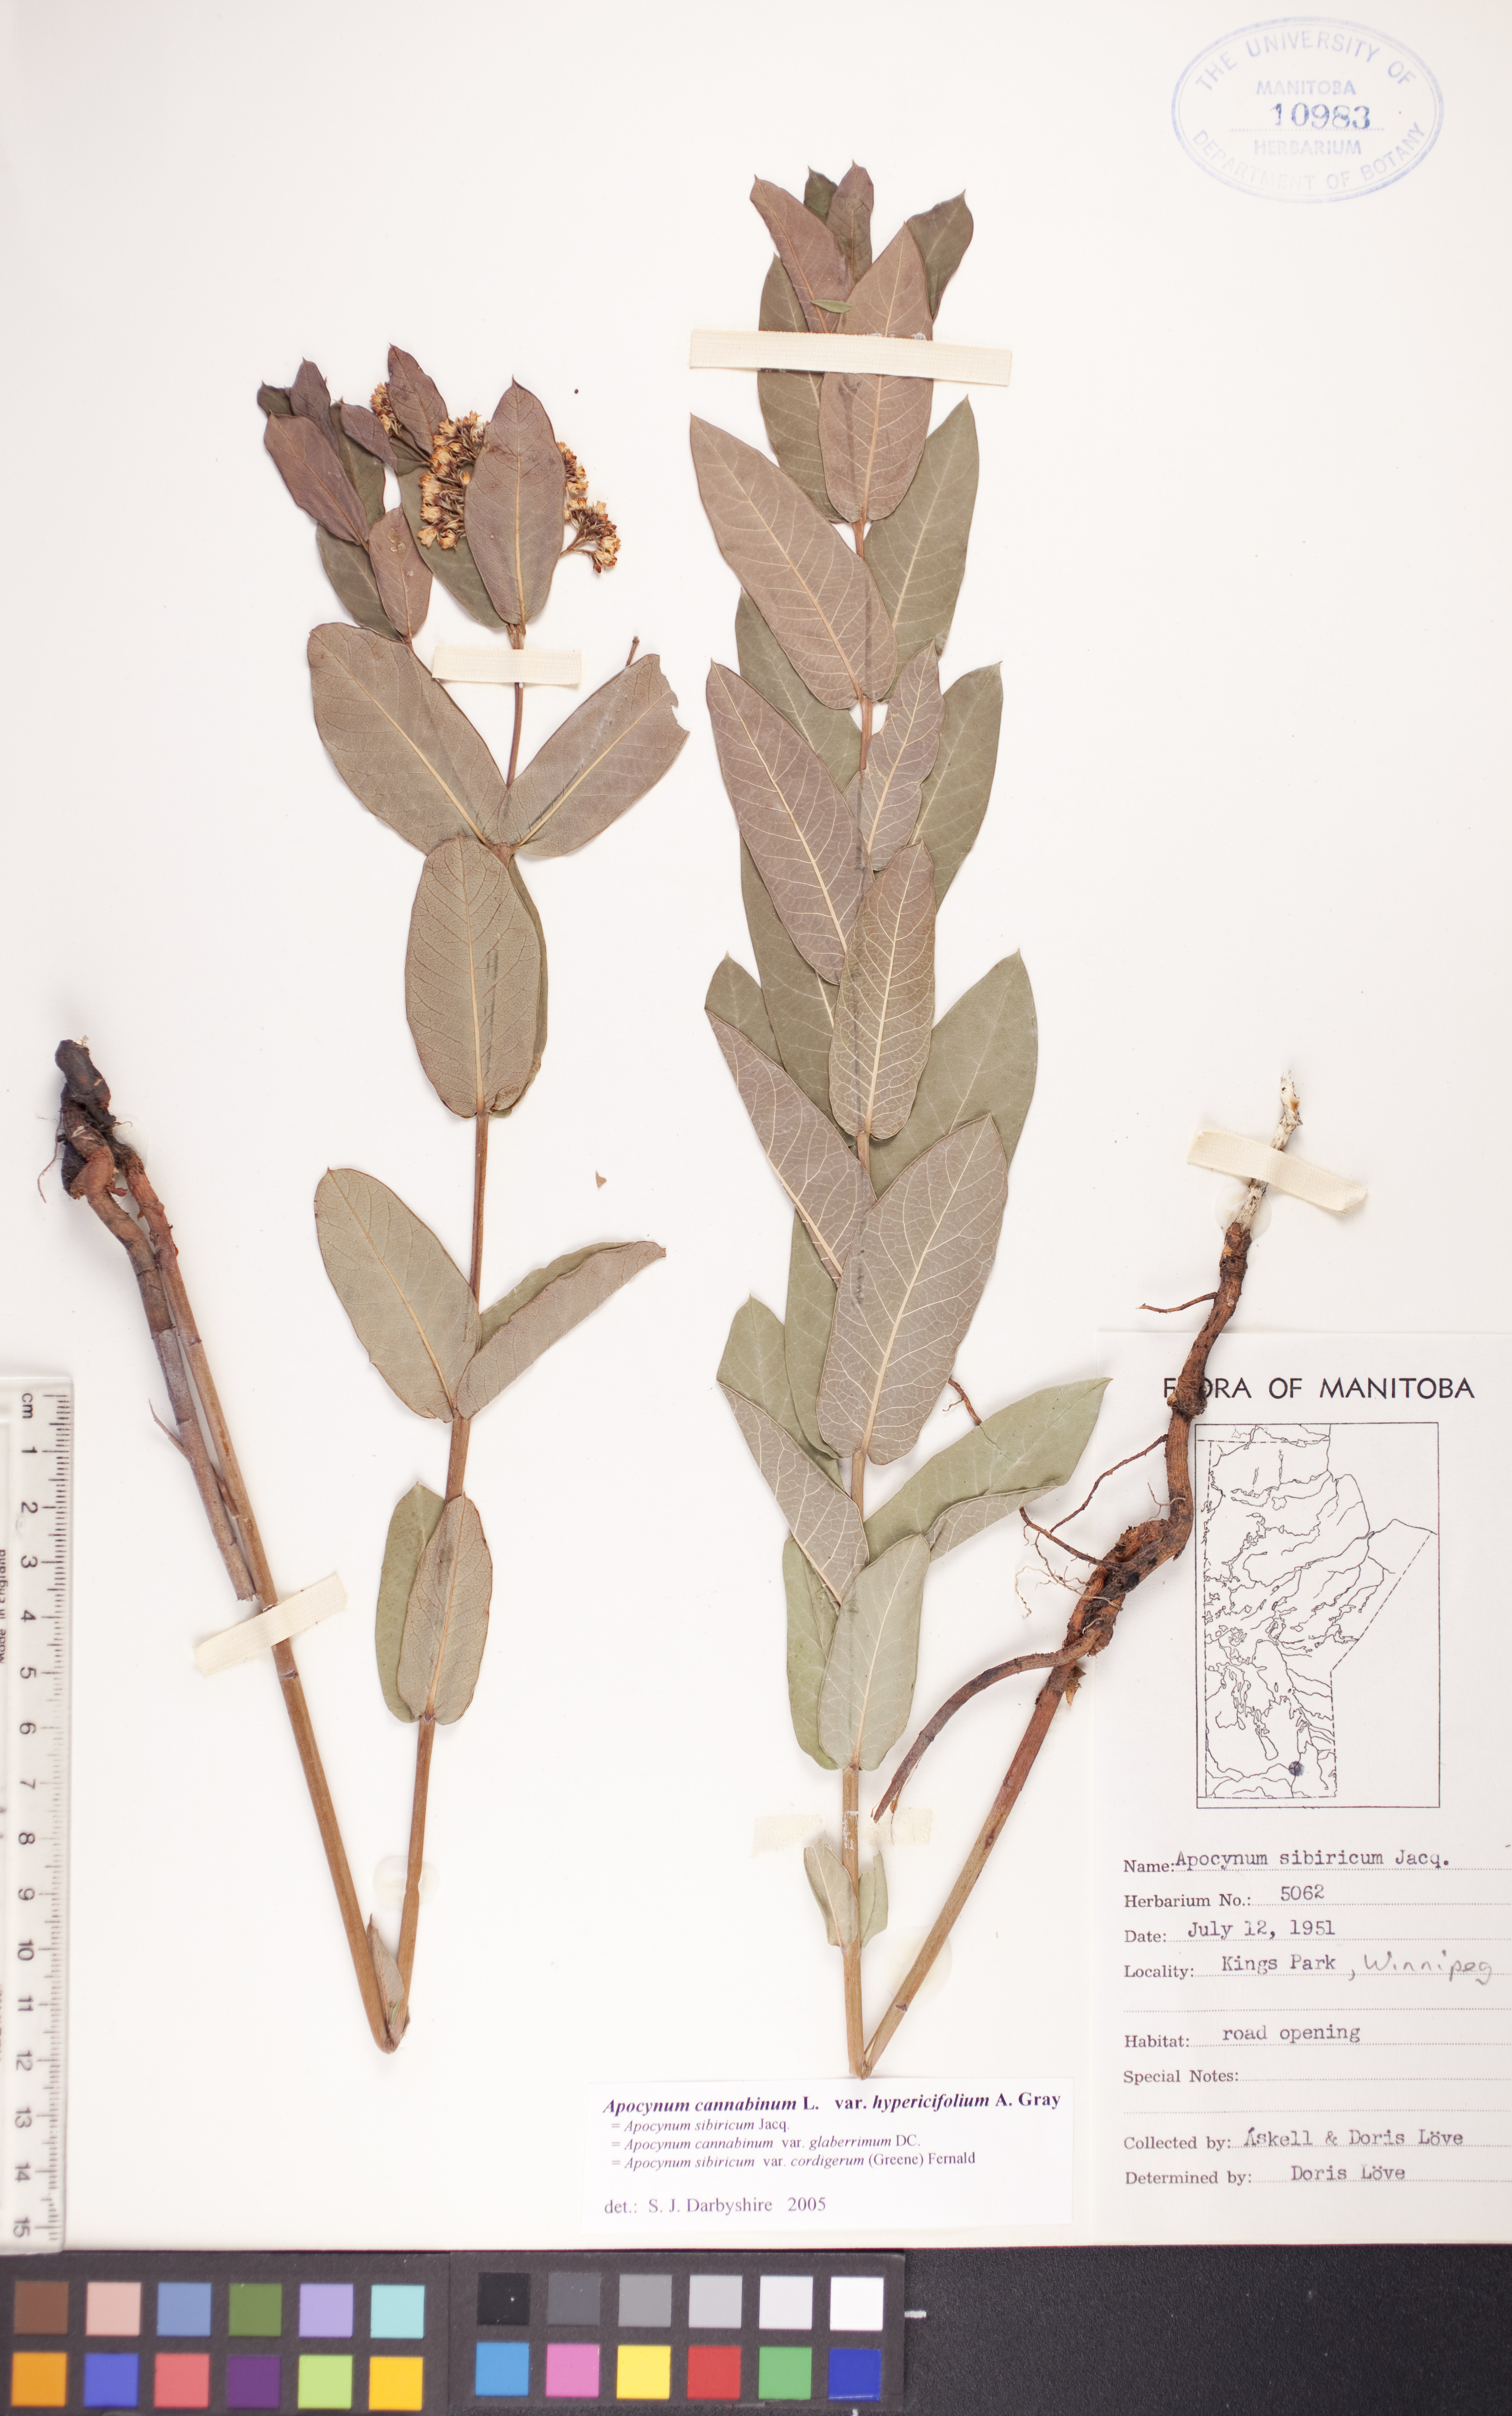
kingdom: Plantae
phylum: Tracheophyta
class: Magnoliopsida
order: Gentianales
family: Apocynaceae
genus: Apocynum
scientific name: Apocynum cannabinum
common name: Hemp dogbane
